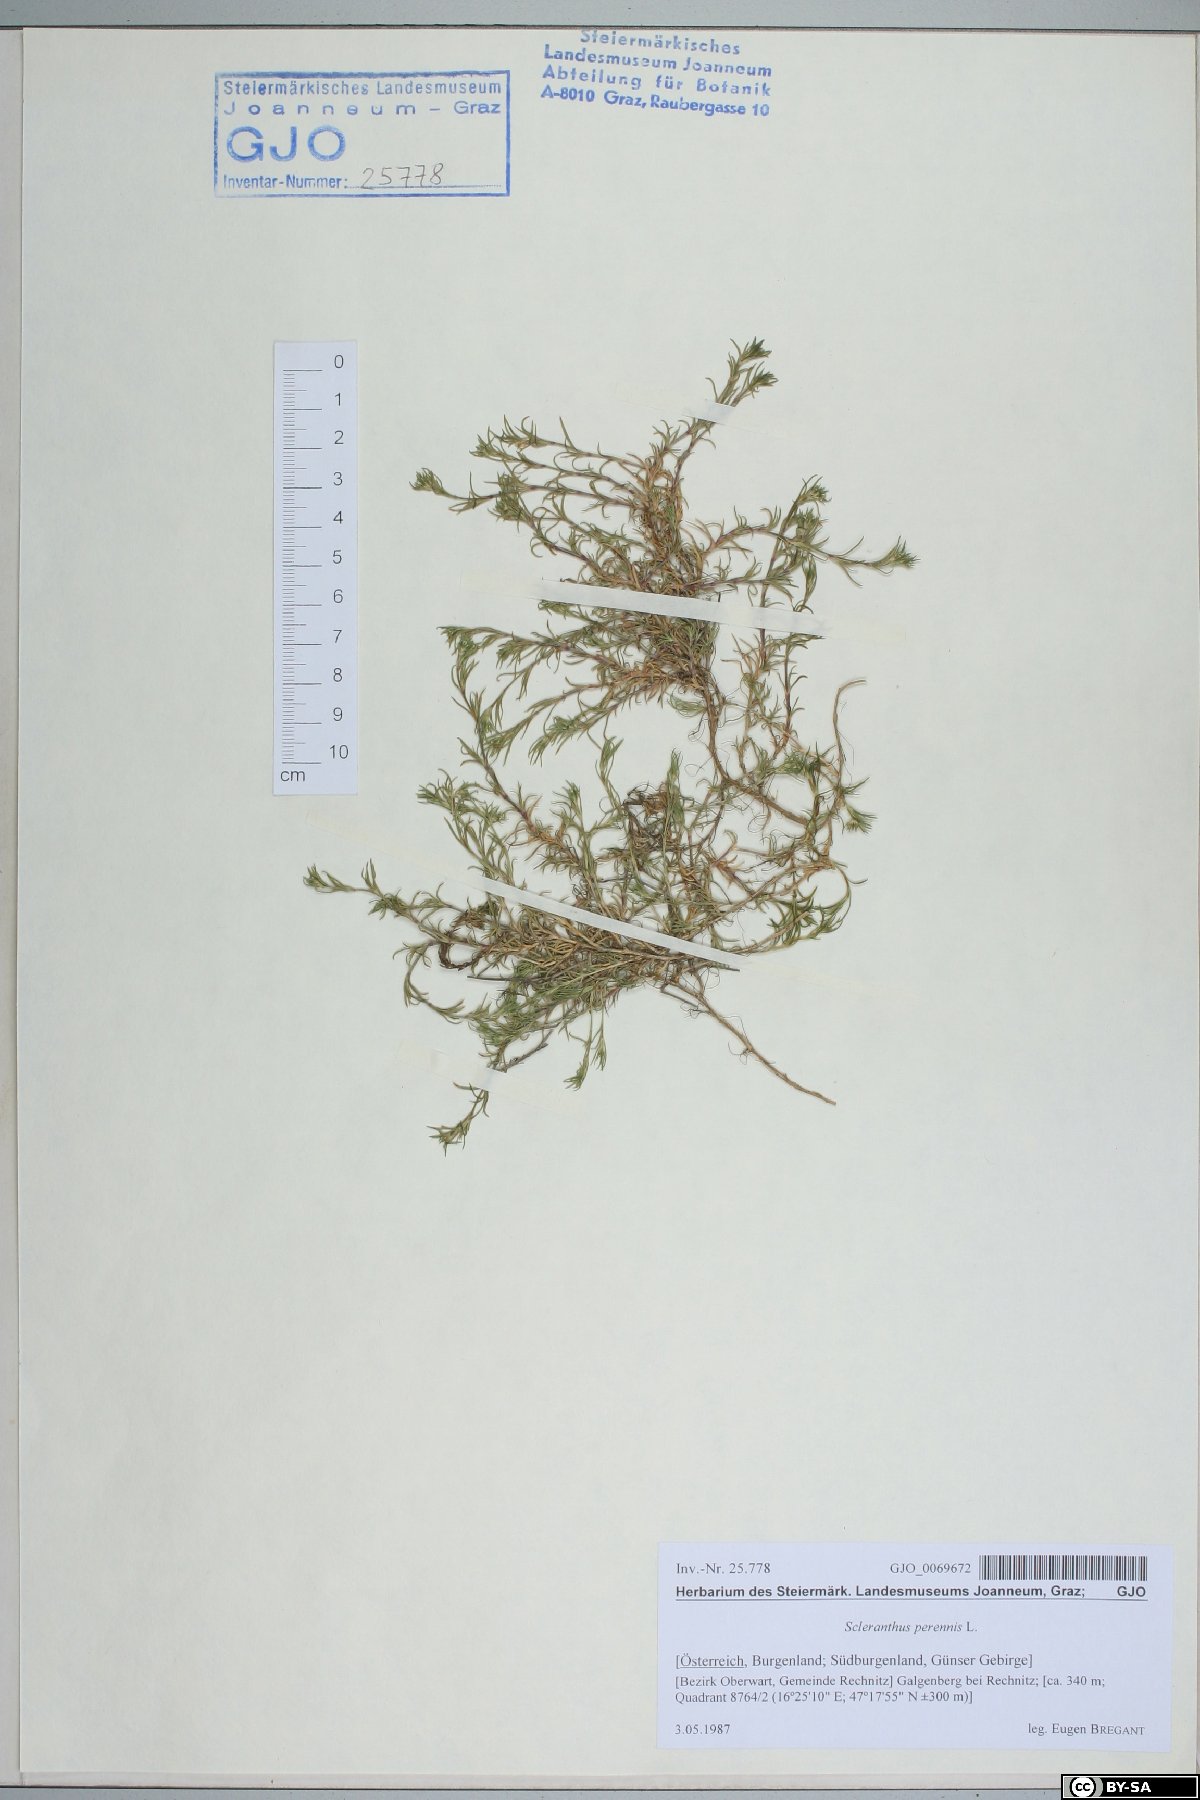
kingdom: Plantae
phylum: Tracheophyta
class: Magnoliopsida
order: Caryophyllales
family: Caryophyllaceae
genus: Scleranthus
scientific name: Scleranthus perennis
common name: Perennial knawel
